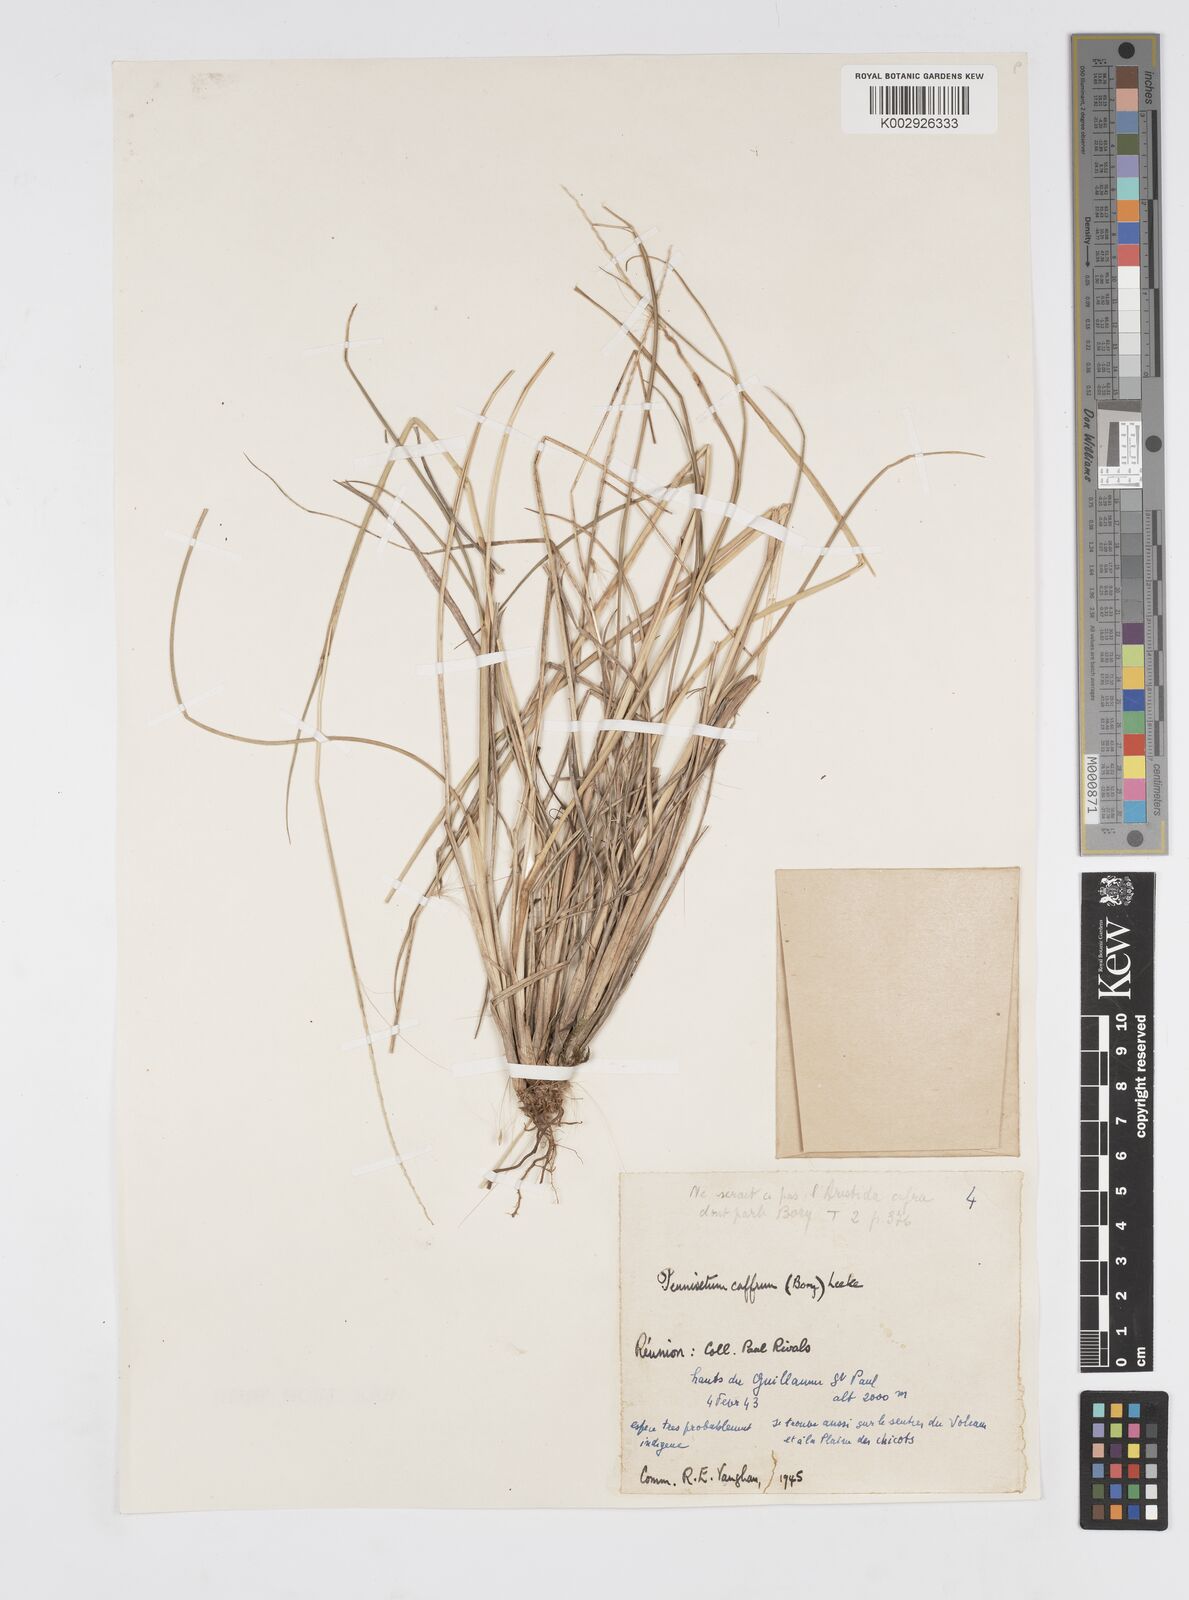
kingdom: Plantae
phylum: Tracheophyta
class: Liliopsida
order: Poales
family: Poaceae
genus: Cenchrus
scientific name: Cenchrus cafer
